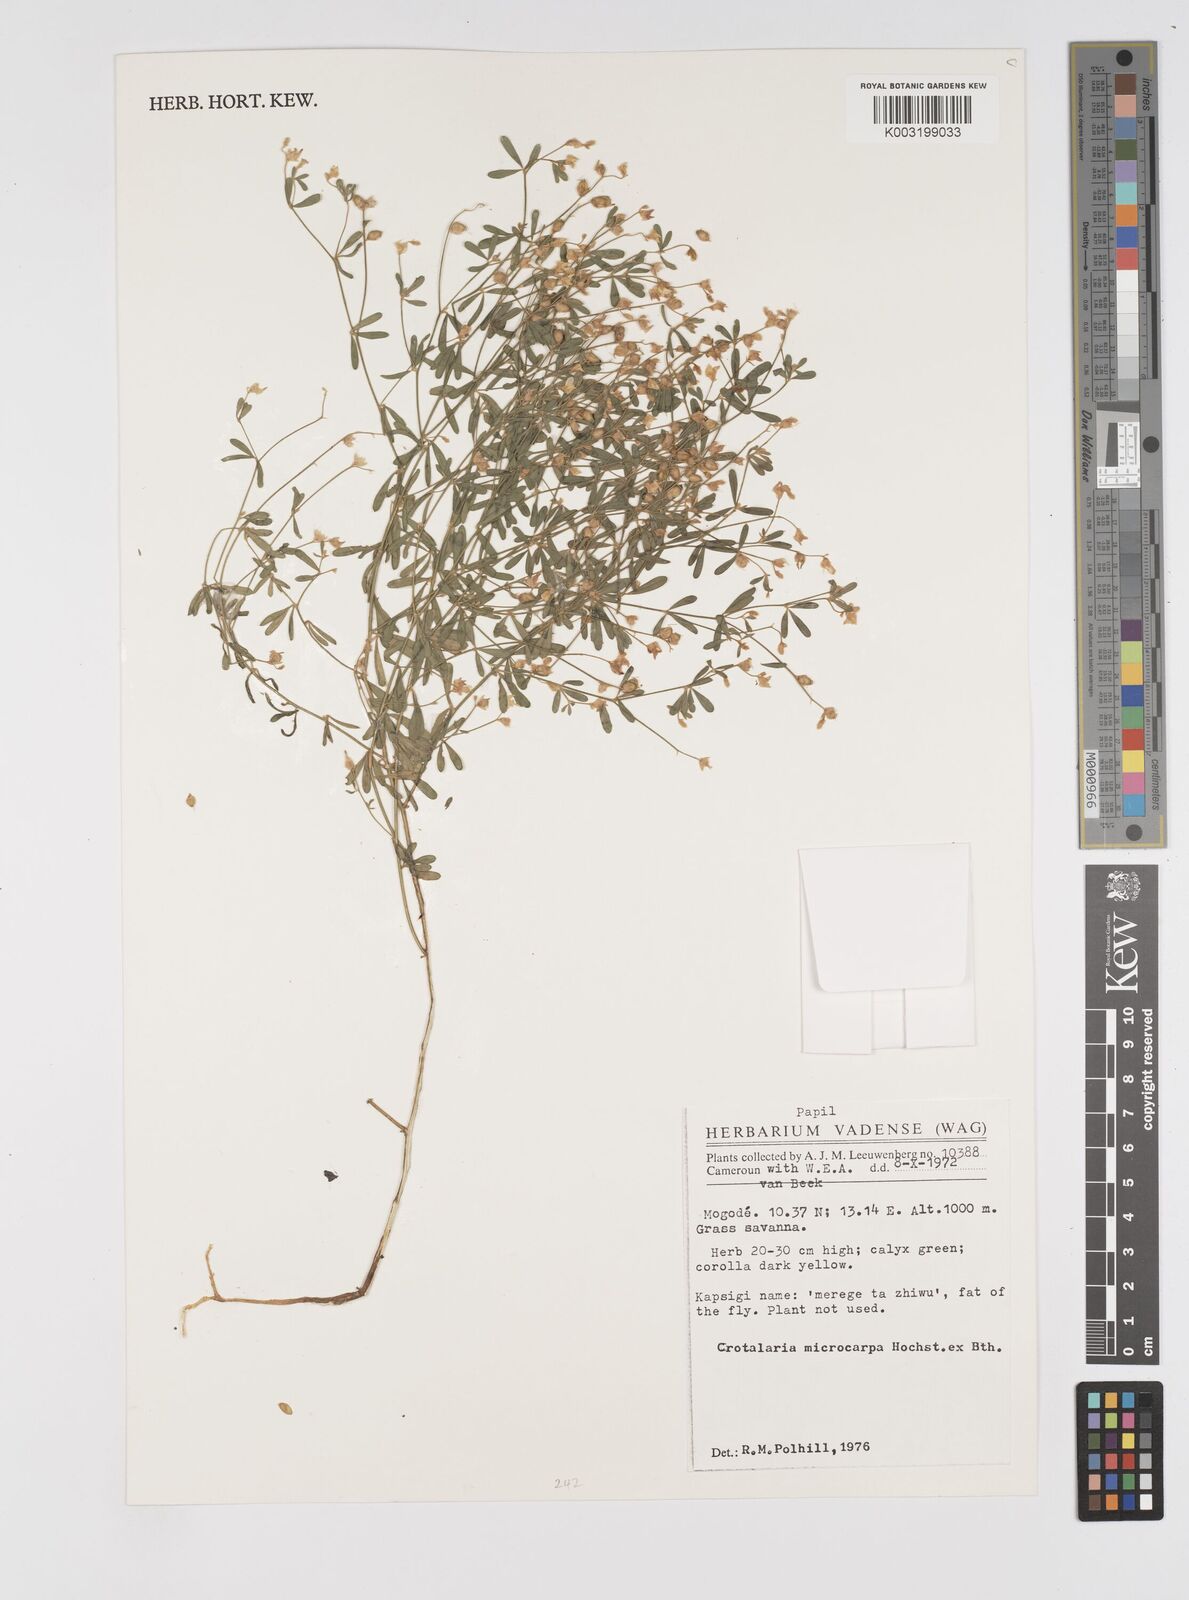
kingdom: Plantae
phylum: Tracheophyta
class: Magnoliopsida
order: Fabales
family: Fabaceae
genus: Crotalaria
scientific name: Crotalaria microcarpa
